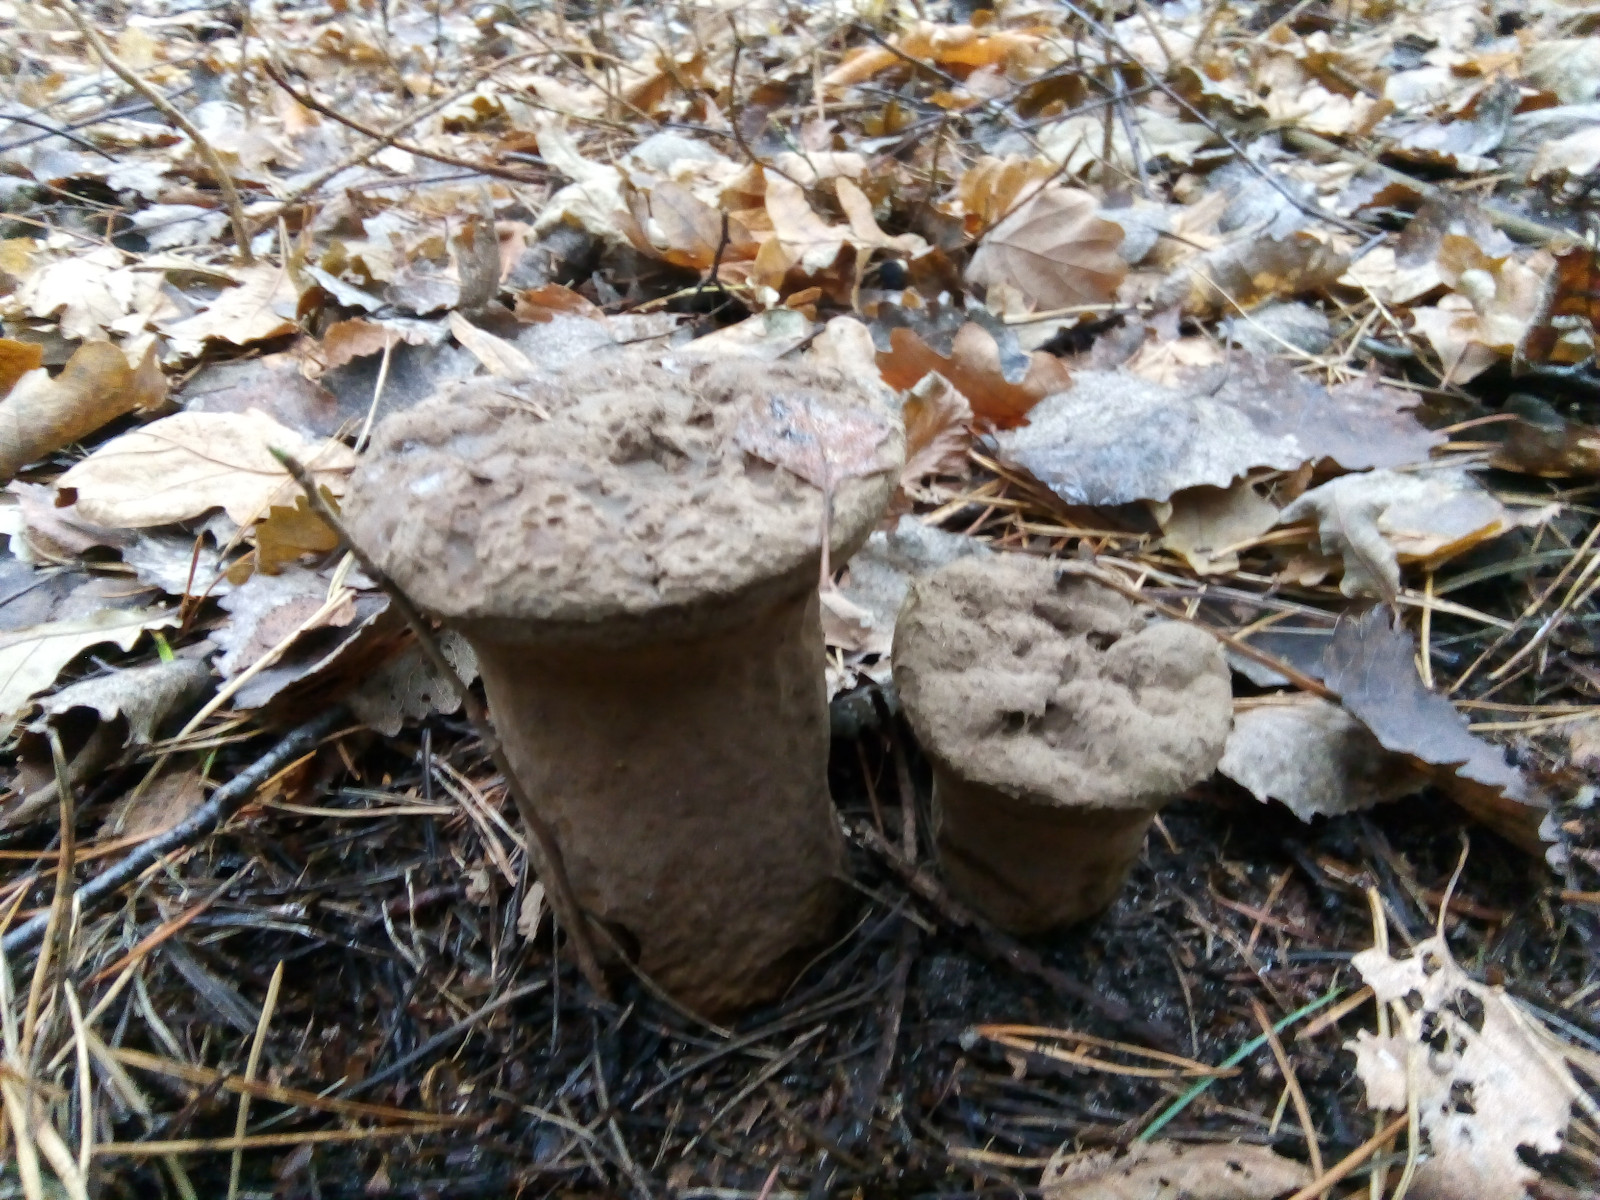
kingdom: Fungi
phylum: Basidiomycota
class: Agaricomycetes
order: Agaricales
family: Lycoperdaceae
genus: Lycoperdon
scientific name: Lycoperdon excipuliforme
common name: højstokket støvbold
